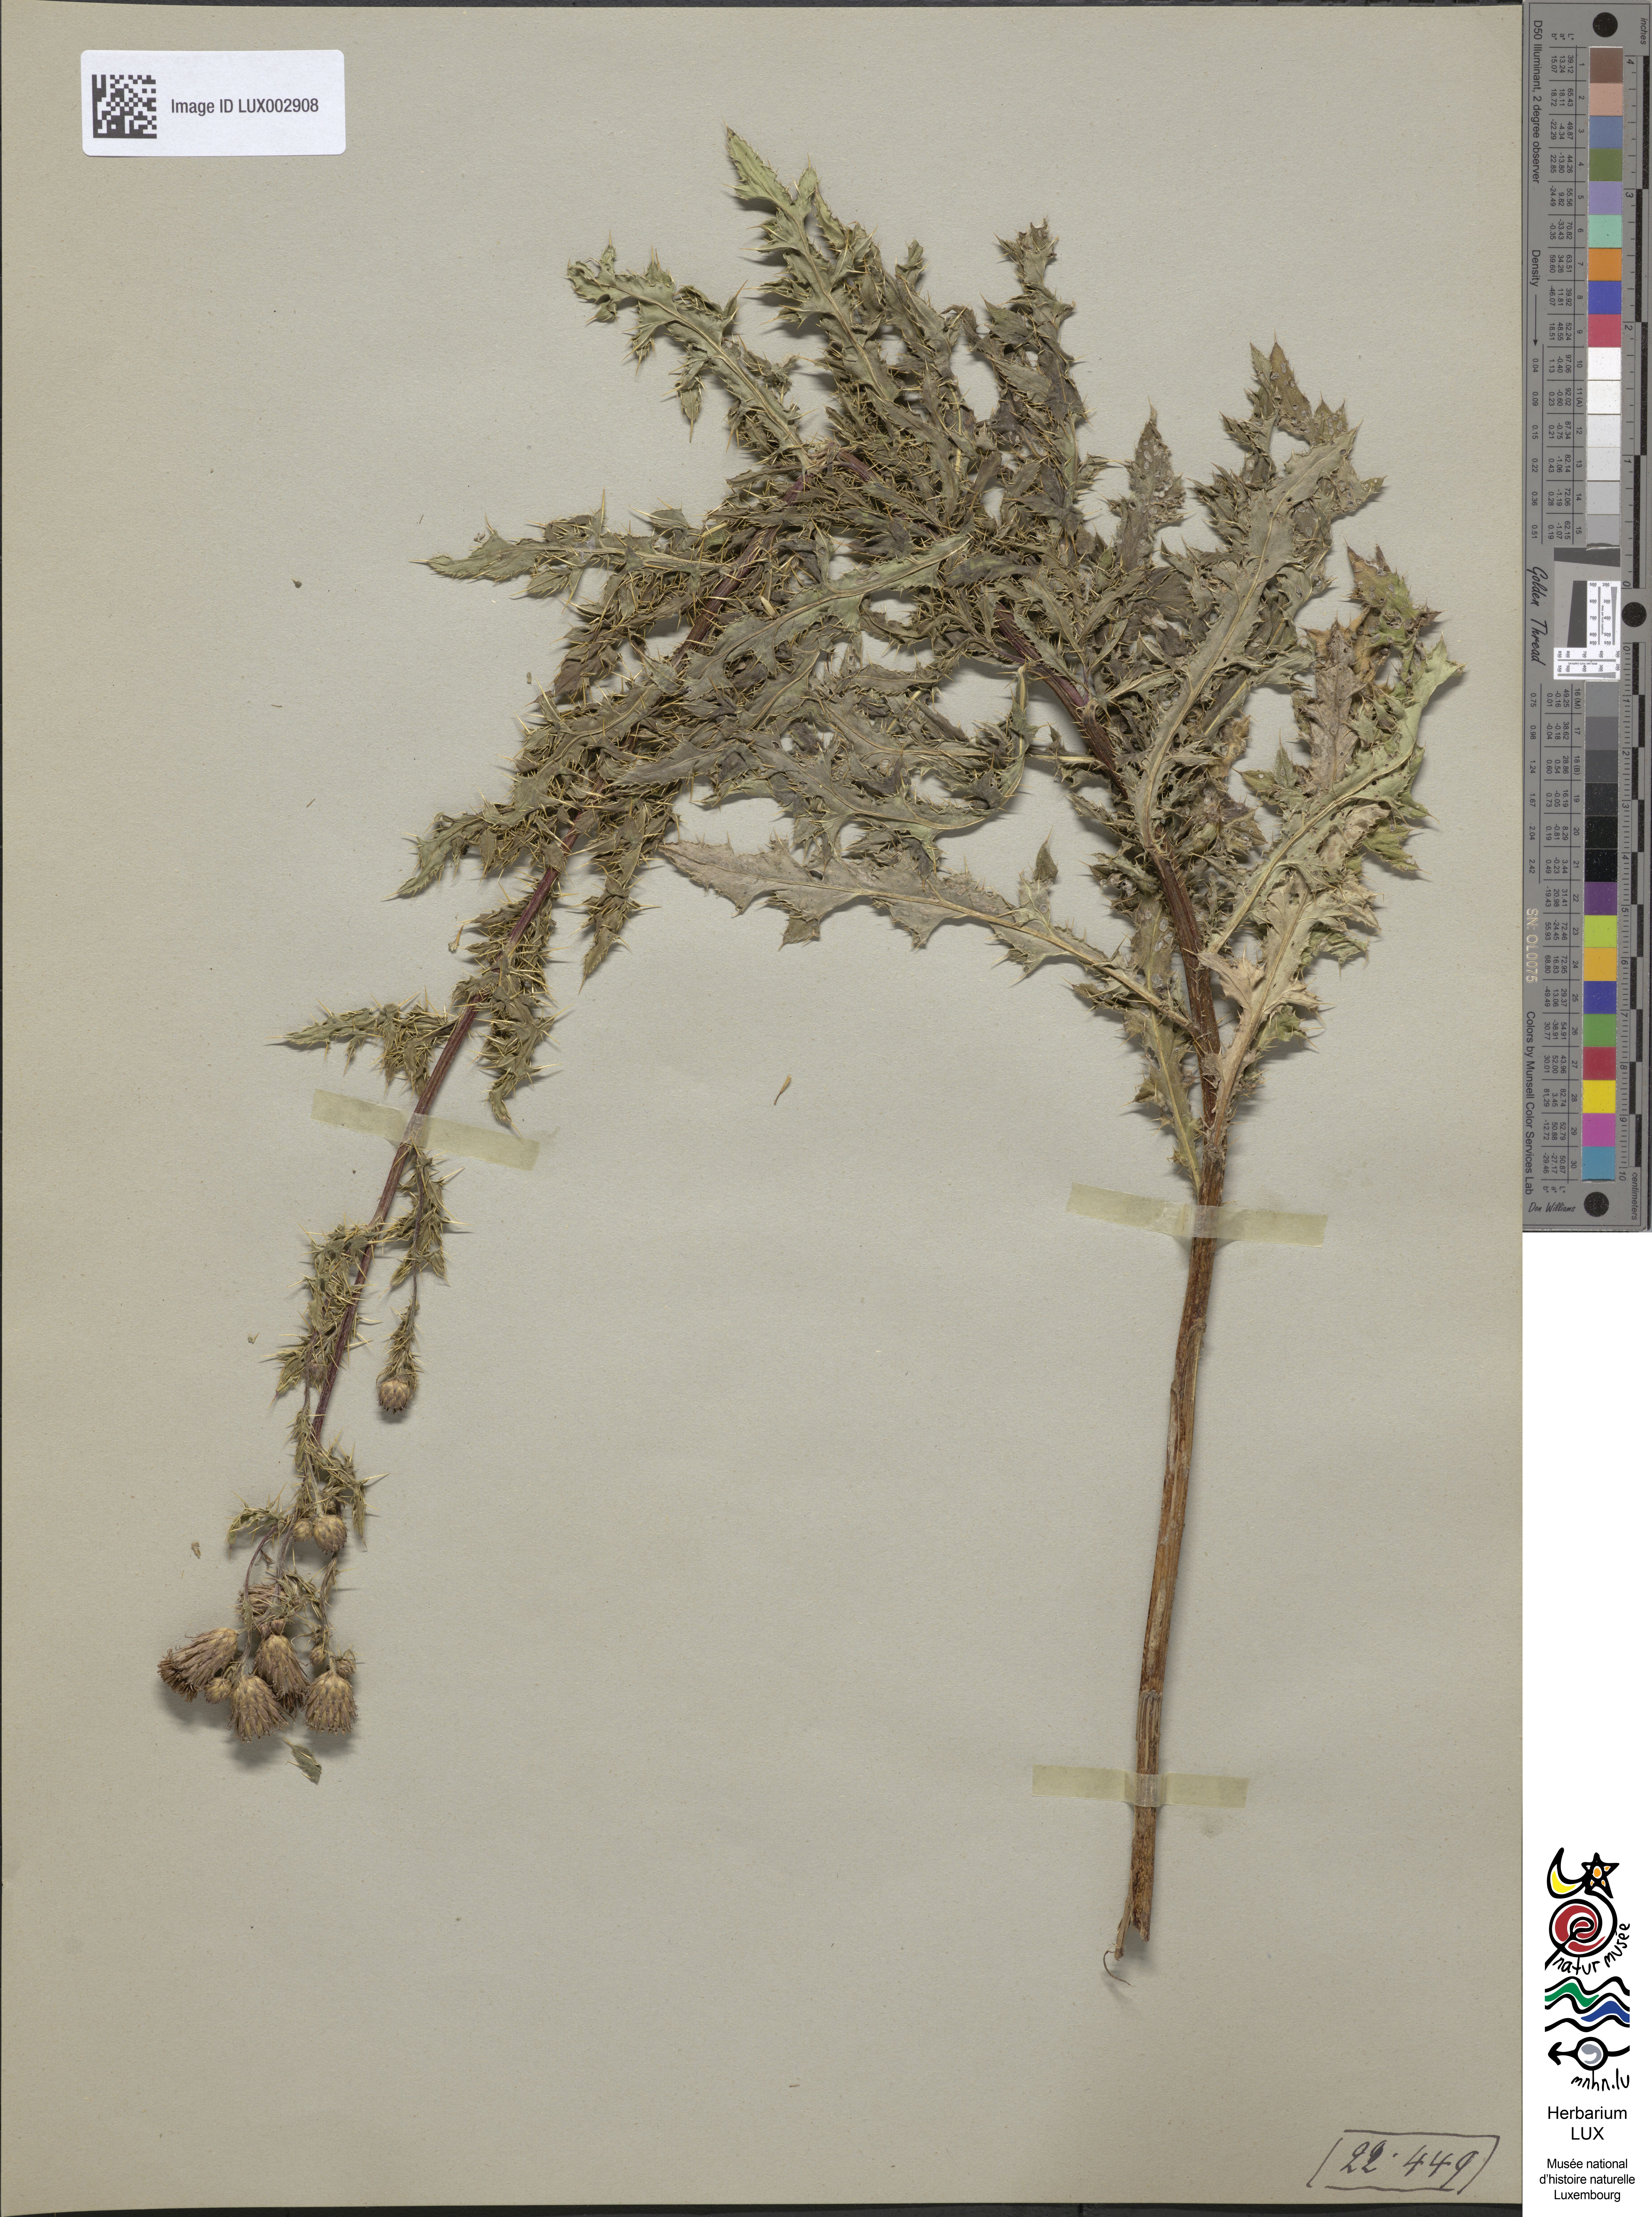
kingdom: Plantae
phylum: Tracheophyta
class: Magnoliopsida
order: Asterales
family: Asteraceae
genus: Cirsium
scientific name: Cirsium arvense
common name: Creeping thistle
